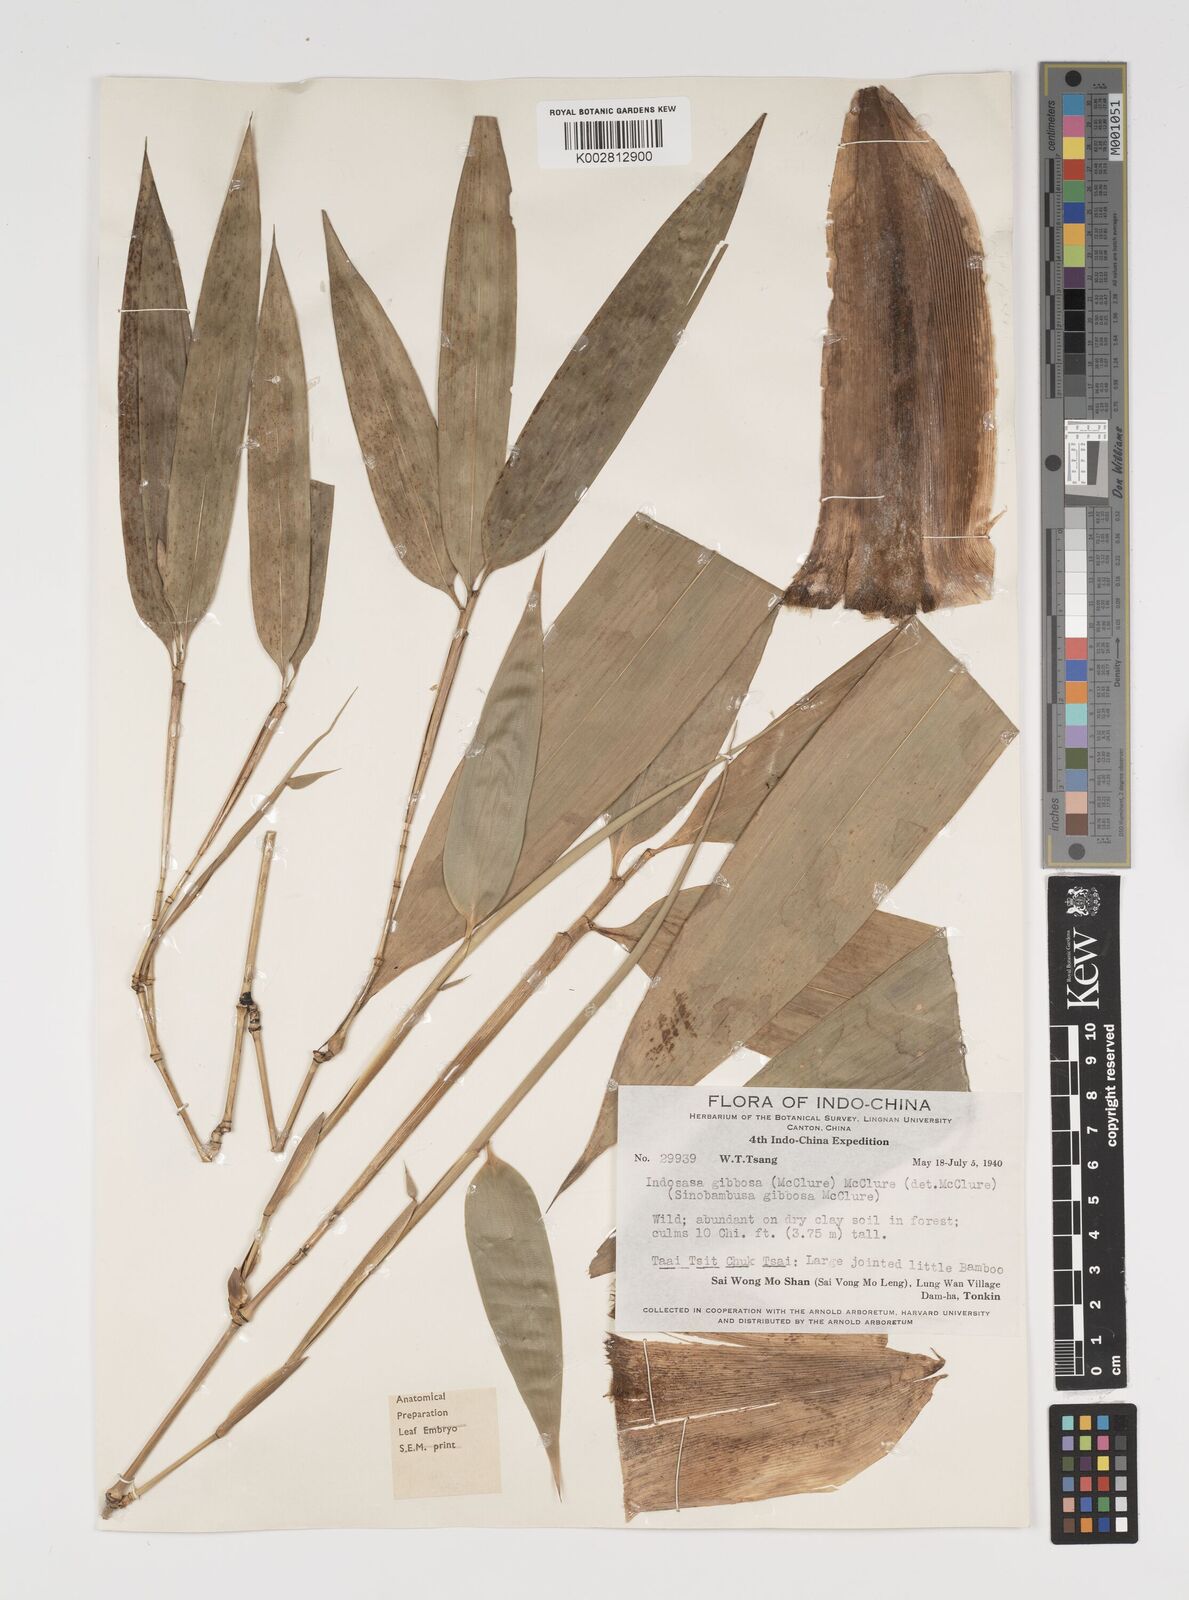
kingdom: Plantae
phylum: Tracheophyta
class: Liliopsida
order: Poales
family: Poaceae
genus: Indosasa
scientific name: Indosasa crassiflora
